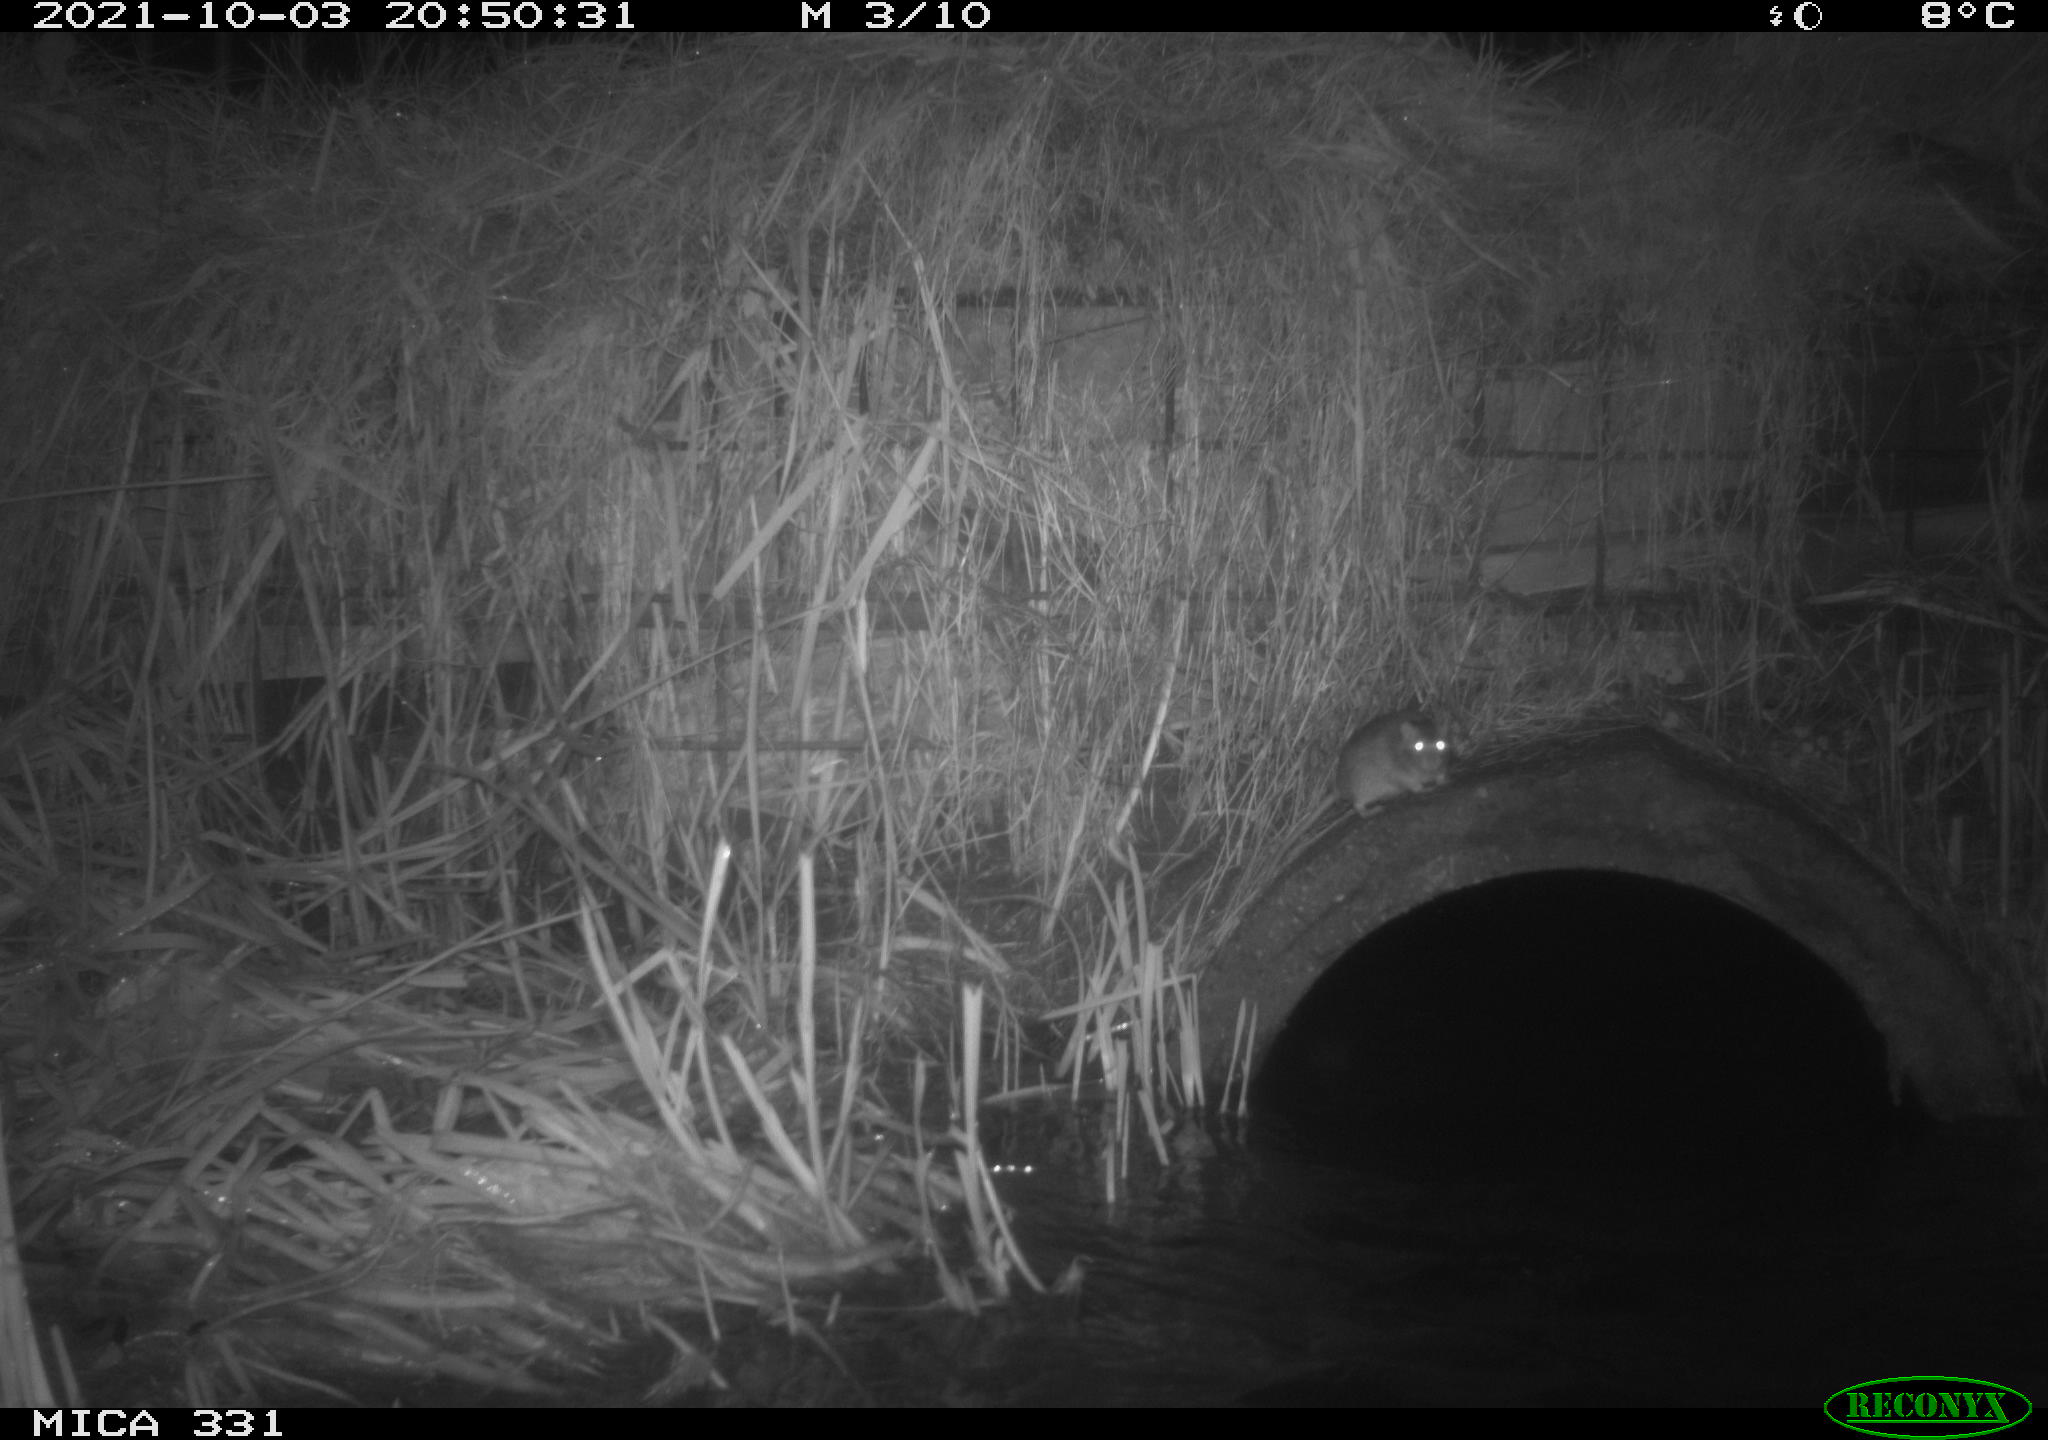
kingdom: Animalia
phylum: Chordata
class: Mammalia
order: Rodentia
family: Muridae
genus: Rattus
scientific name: Rattus norvegicus
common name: Brown rat
